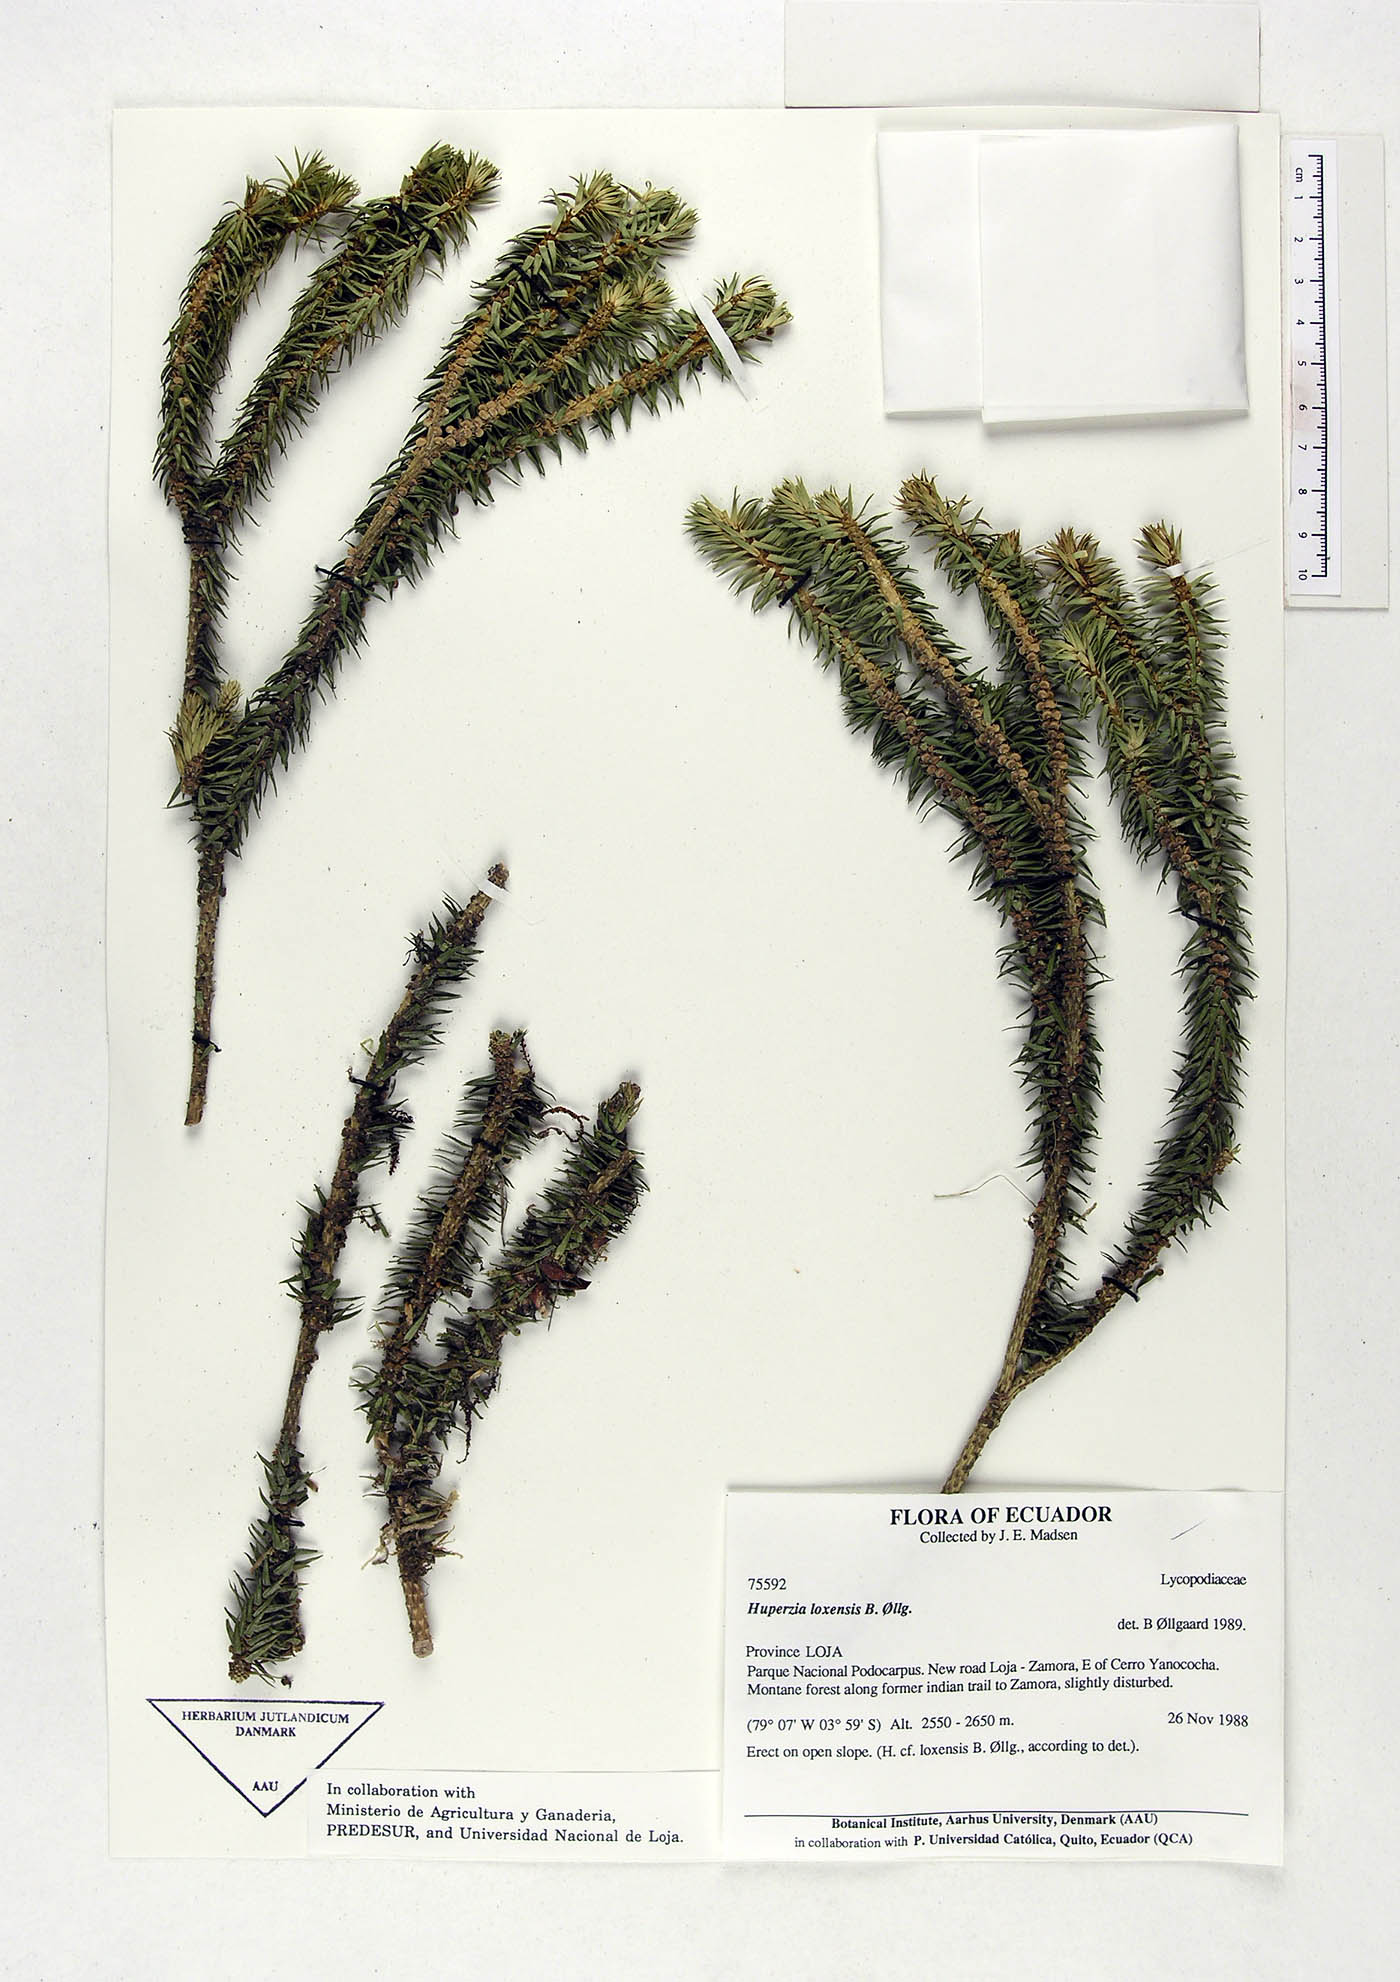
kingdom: Plantae
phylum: Tracheophyta
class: Lycopodiopsida
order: Lycopodiales
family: Lycopodiaceae
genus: Phlegmariurus
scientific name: Phlegmariurus loxensis
